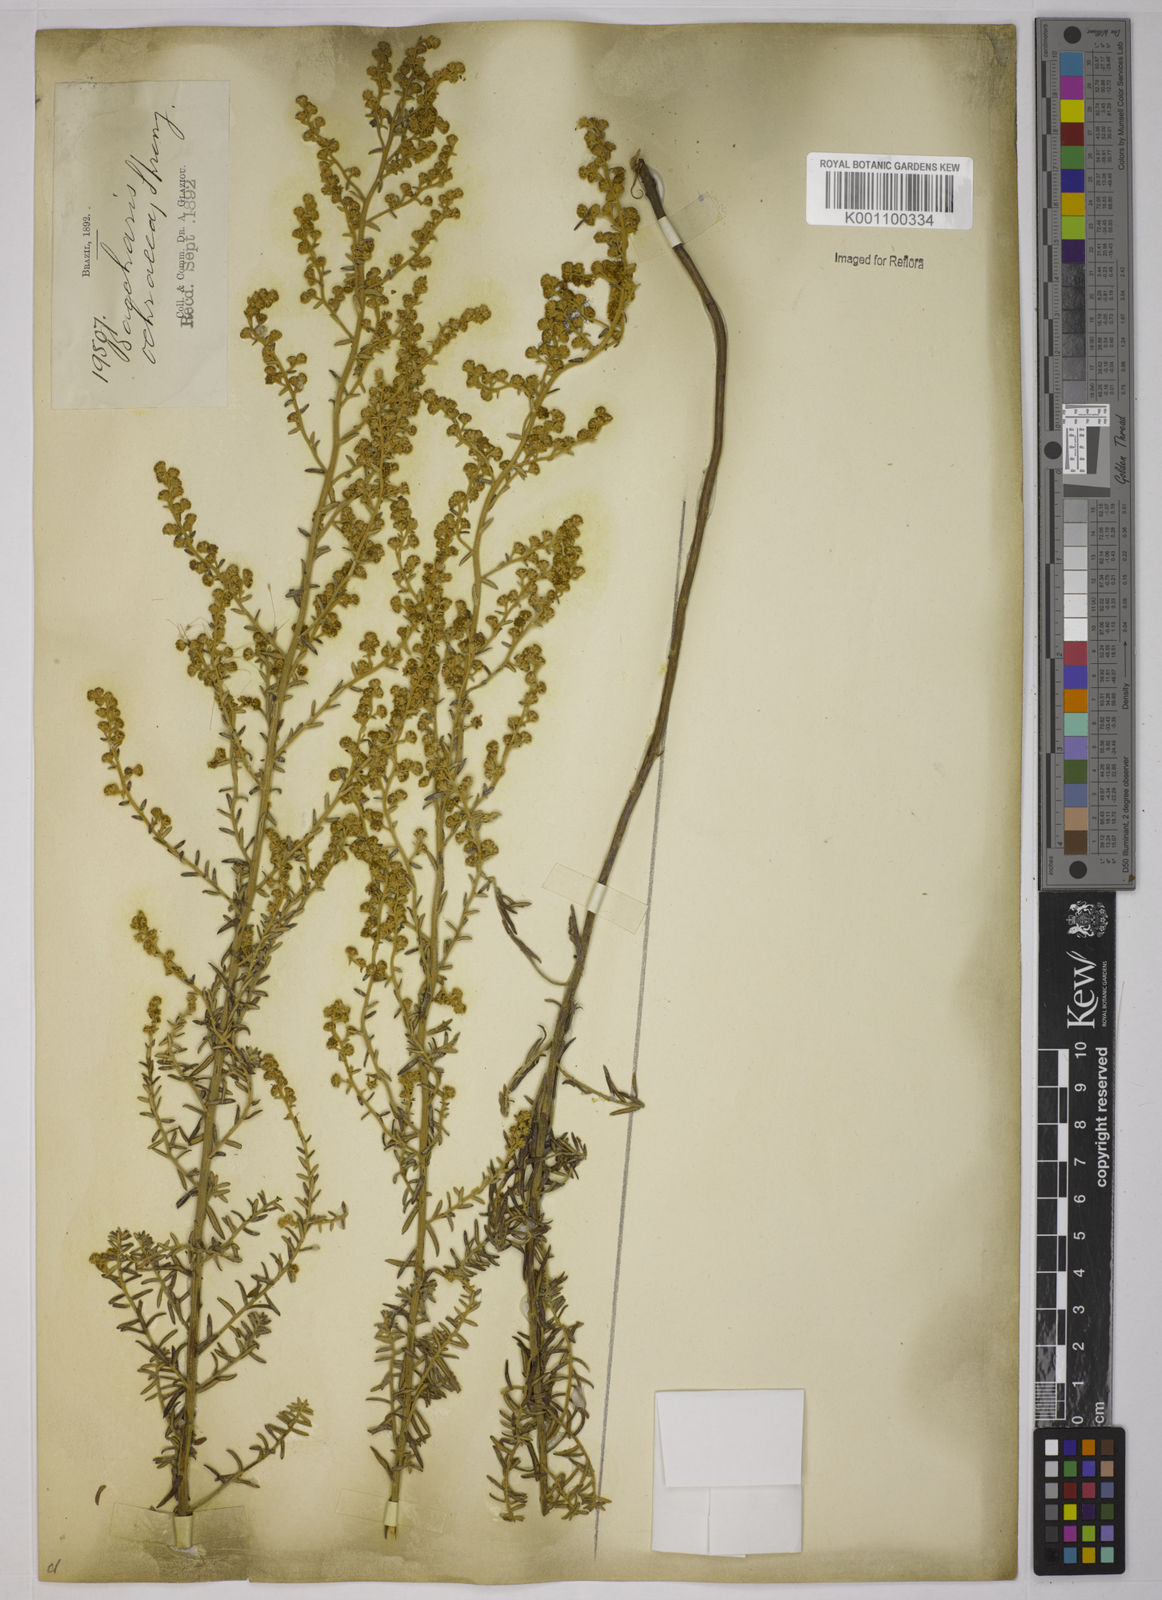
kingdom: Plantae
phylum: Tracheophyta
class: Magnoliopsida
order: Asterales
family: Asteraceae
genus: Baccharis
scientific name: Baccharis ochracea
